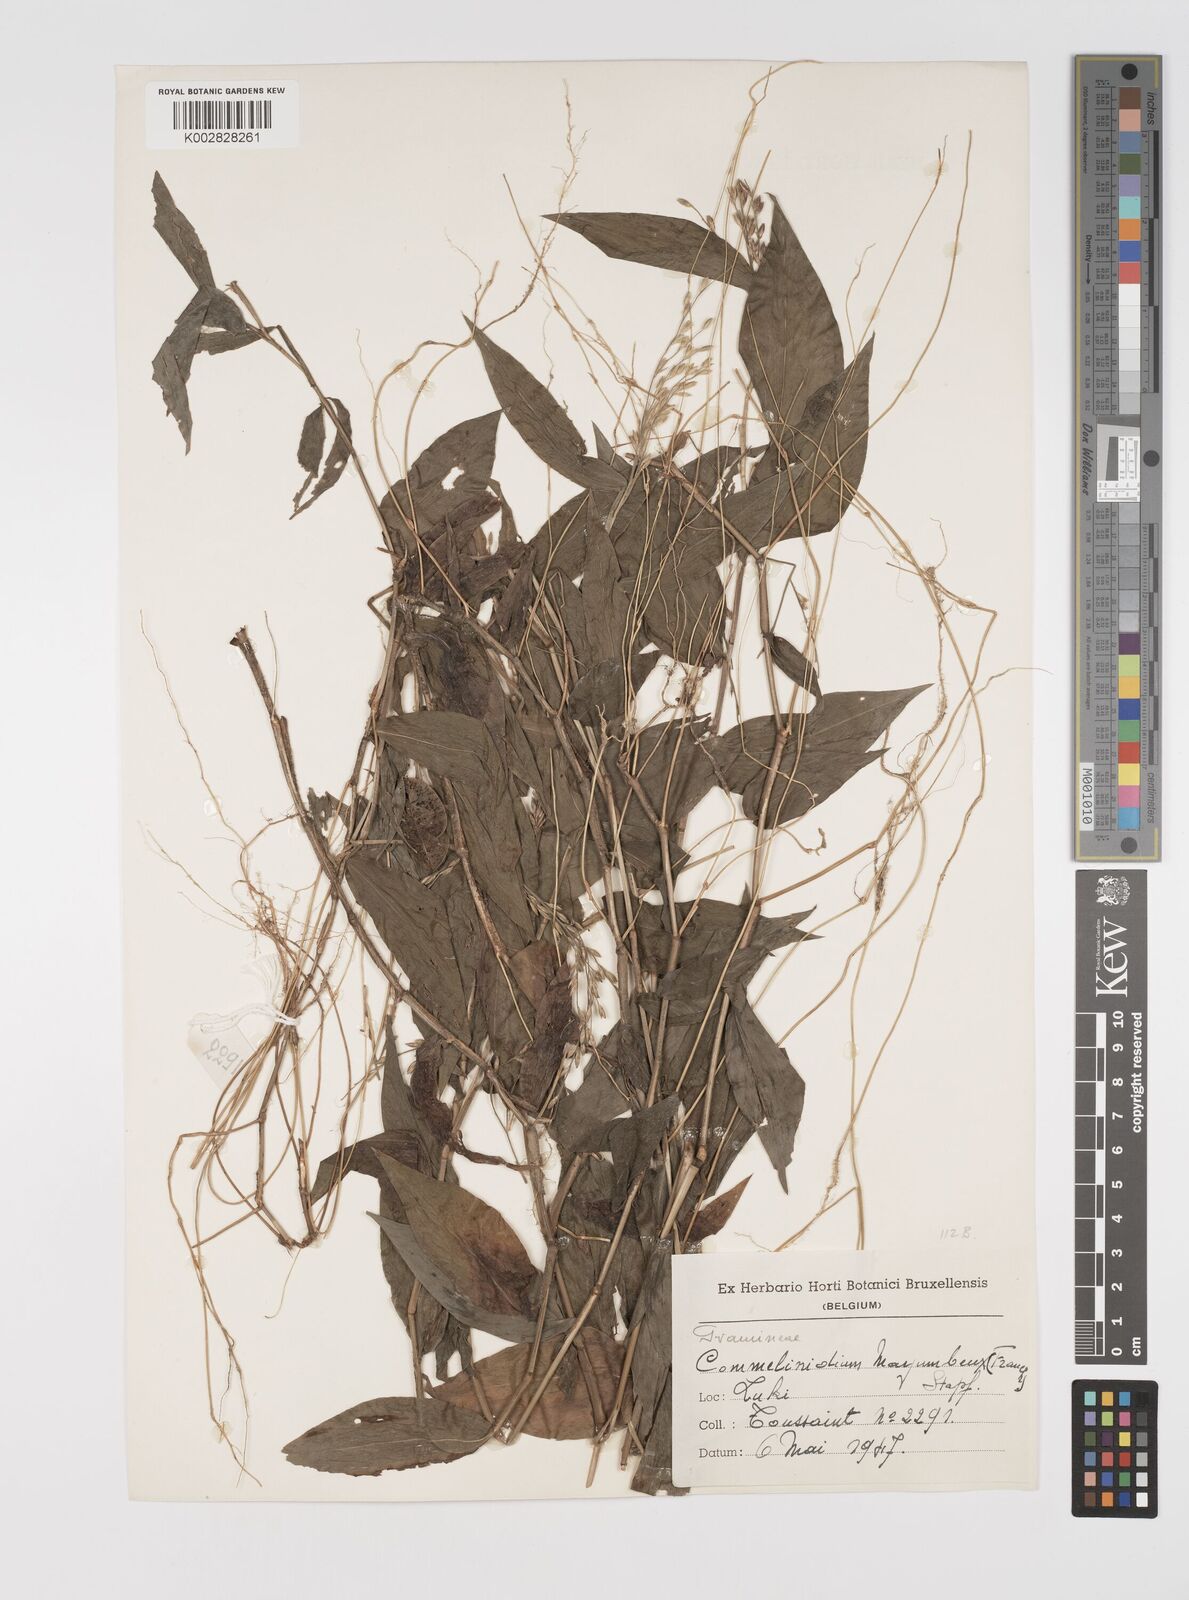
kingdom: Plantae
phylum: Tracheophyta
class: Liliopsida
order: Poales
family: Poaceae
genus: Acroceras
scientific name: Acroceras gabunense
